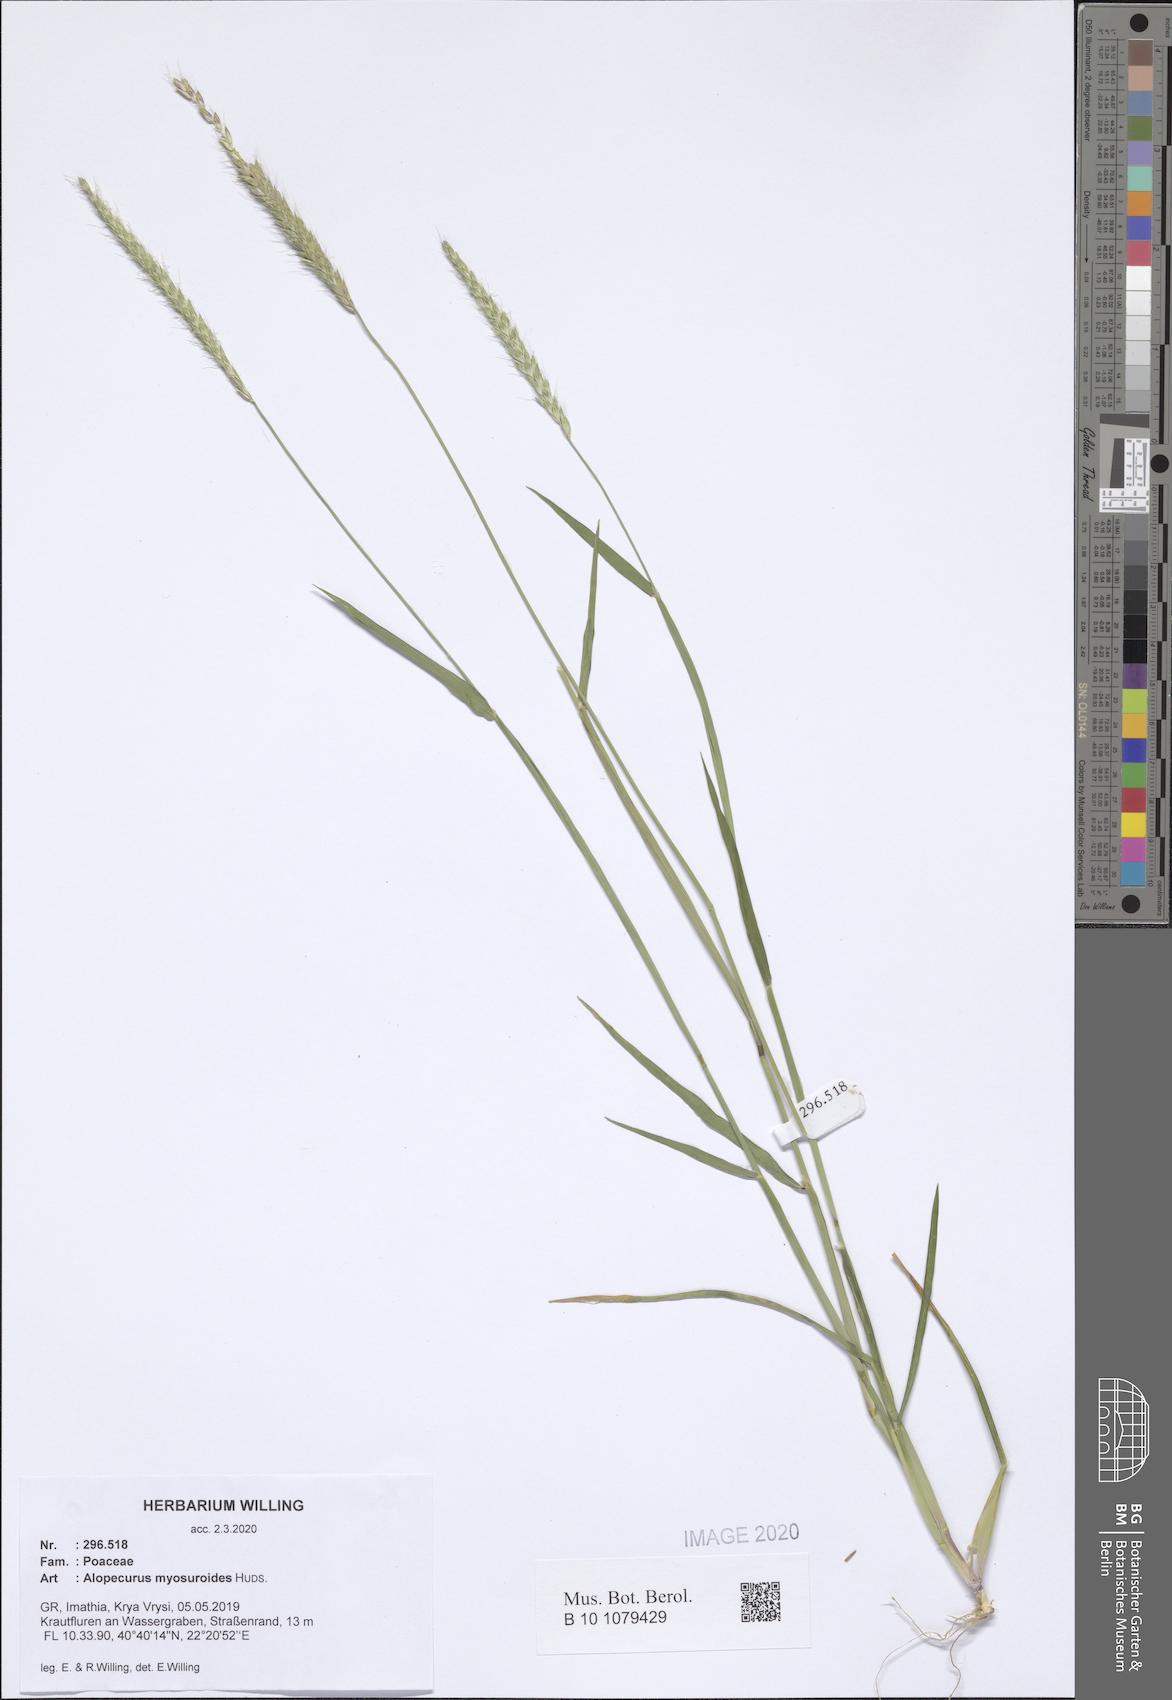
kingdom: Plantae
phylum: Tracheophyta
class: Liliopsida
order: Poales
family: Poaceae
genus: Alopecurus
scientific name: Alopecurus myosuroides
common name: Black-grass
